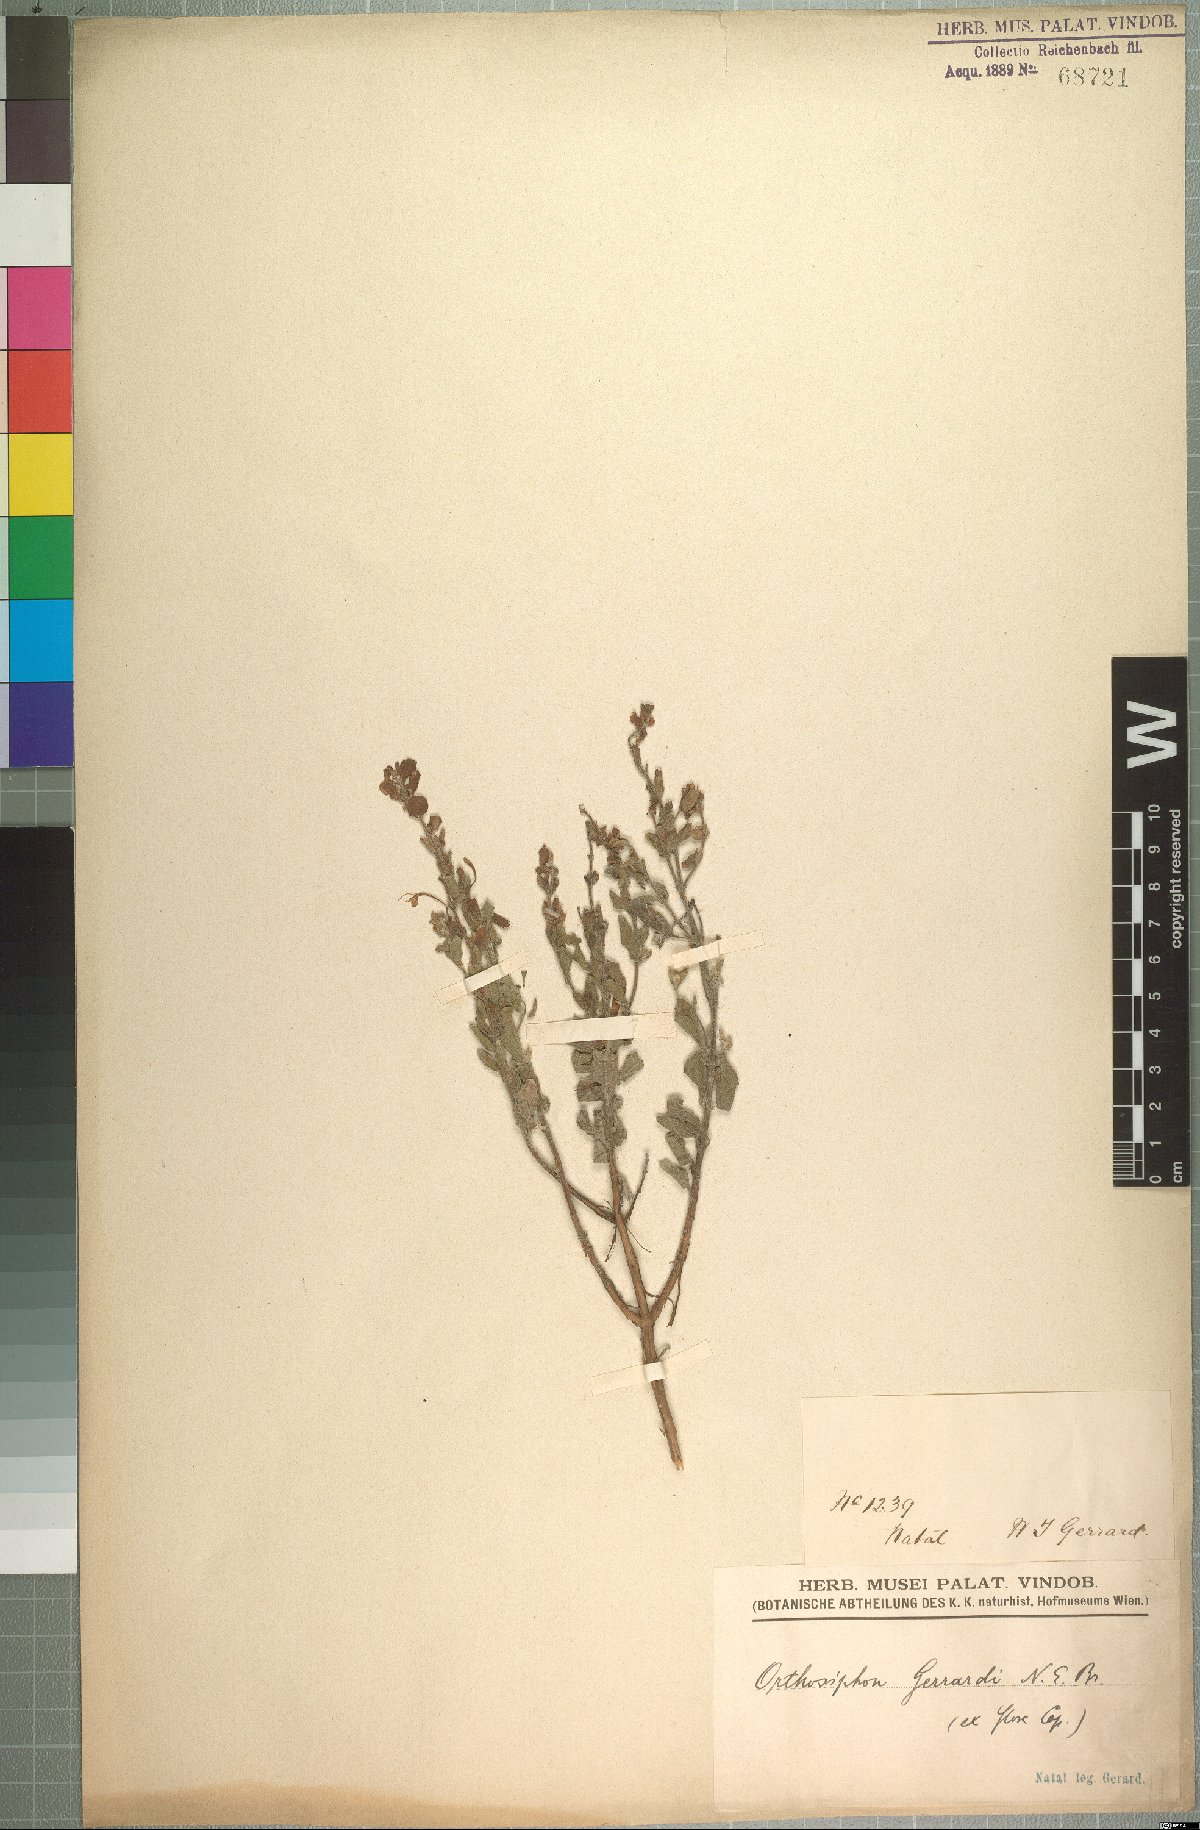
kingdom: Plantae
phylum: Tracheophyta
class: Magnoliopsida
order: Lamiales
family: Lamiaceae
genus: Syncolostemon
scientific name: Syncolostemon gerrardii
